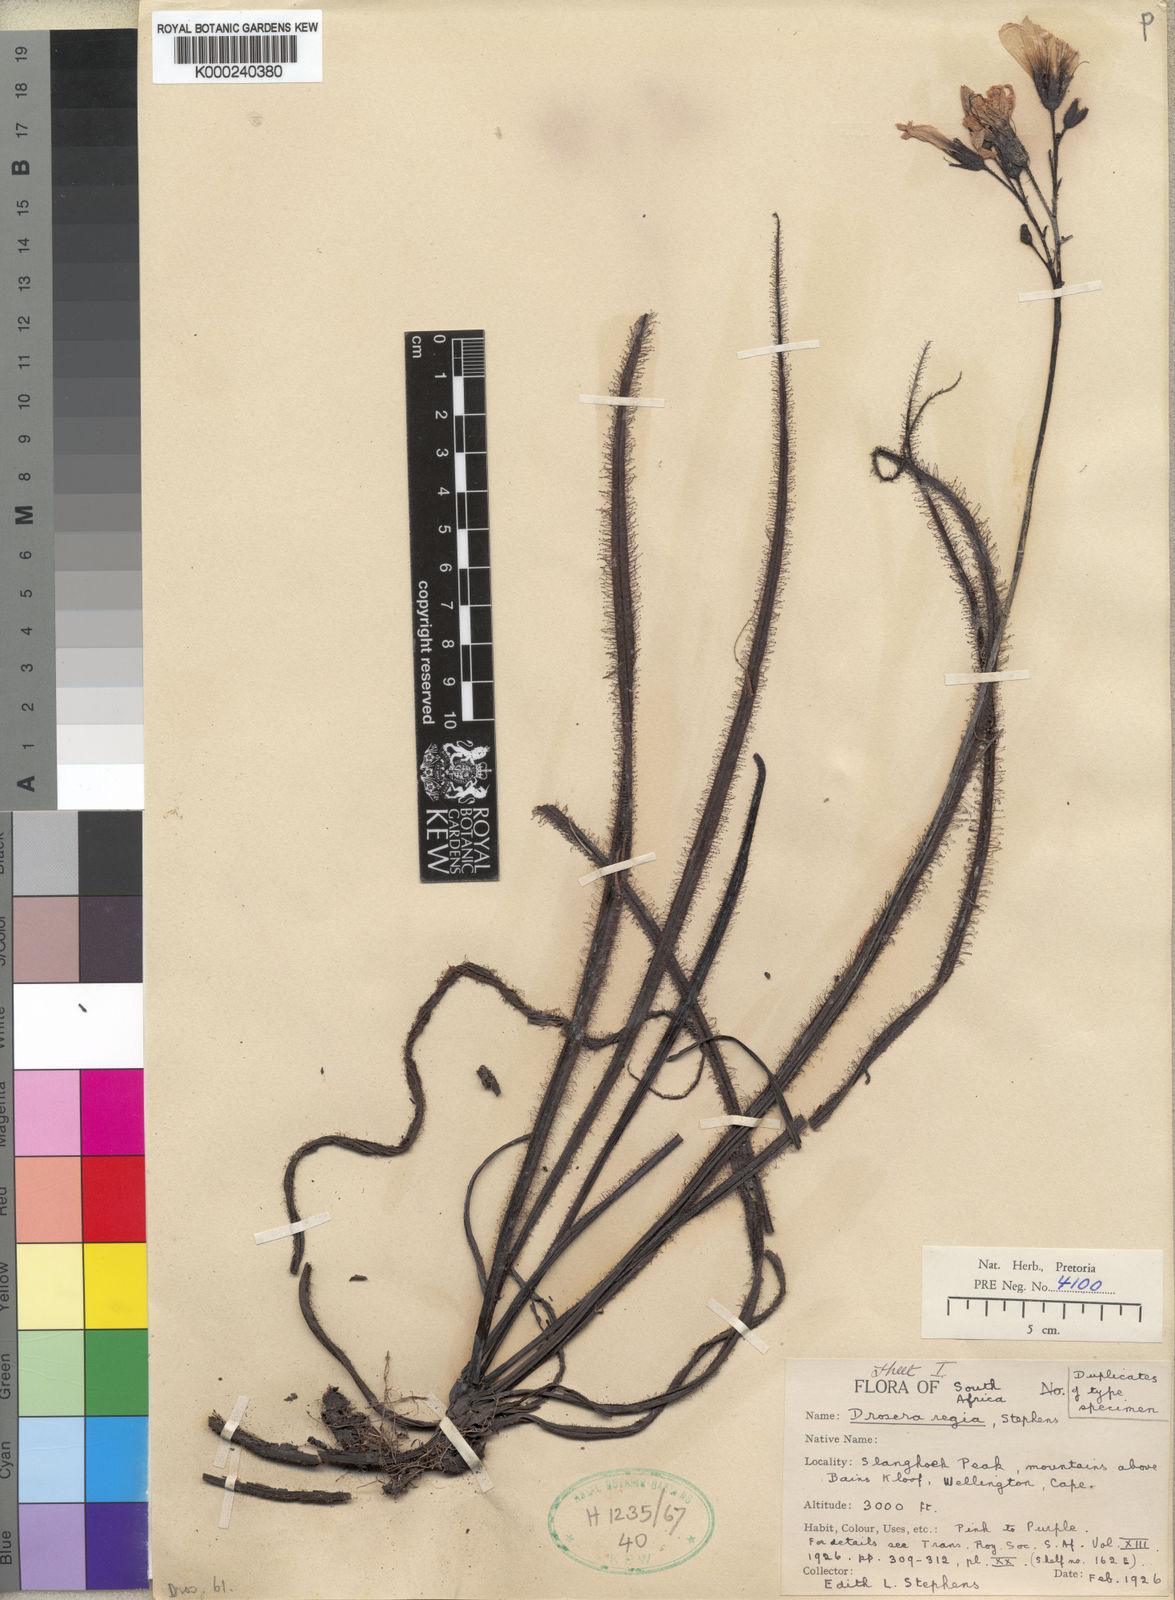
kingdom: Plantae
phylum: Tracheophyta
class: Magnoliopsida
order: Caryophyllales
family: Droseraceae
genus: Drosera
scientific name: Drosera regia
